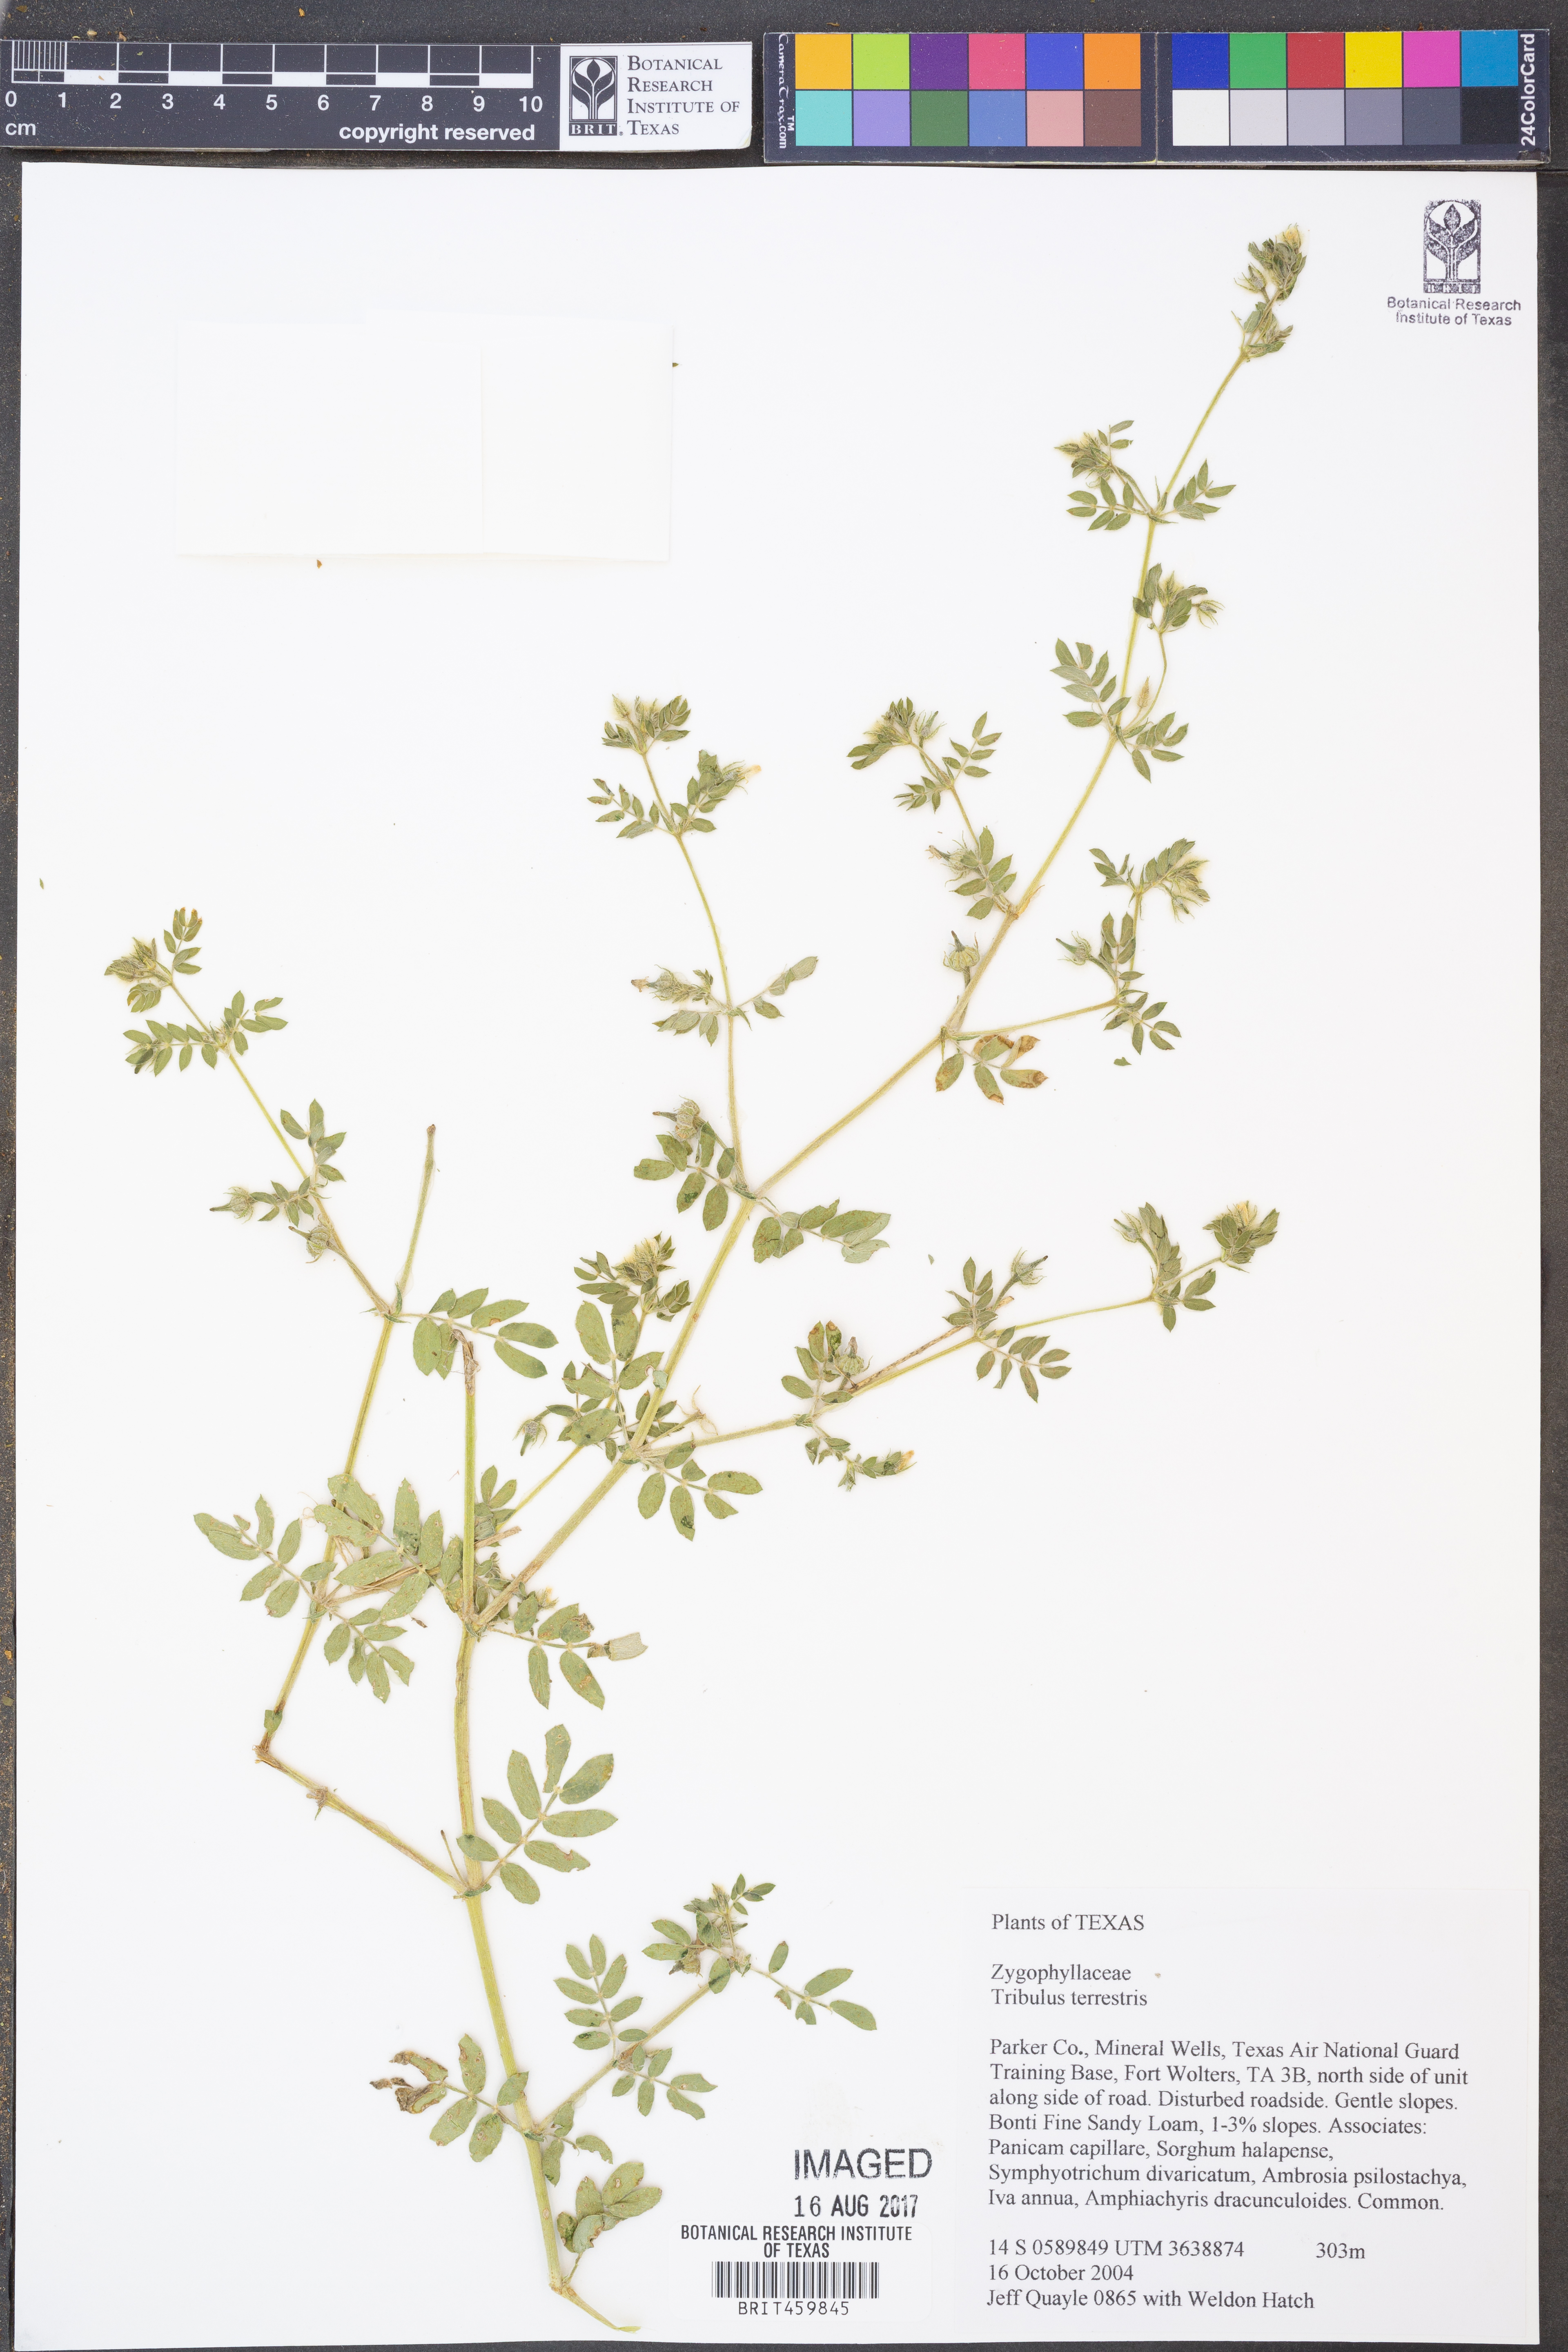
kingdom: Plantae
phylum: Tracheophyta
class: Magnoliopsida
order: Zygophyllales
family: Zygophyllaceae
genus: Tribulus
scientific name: Tribulus terrestris
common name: Puncturevine
